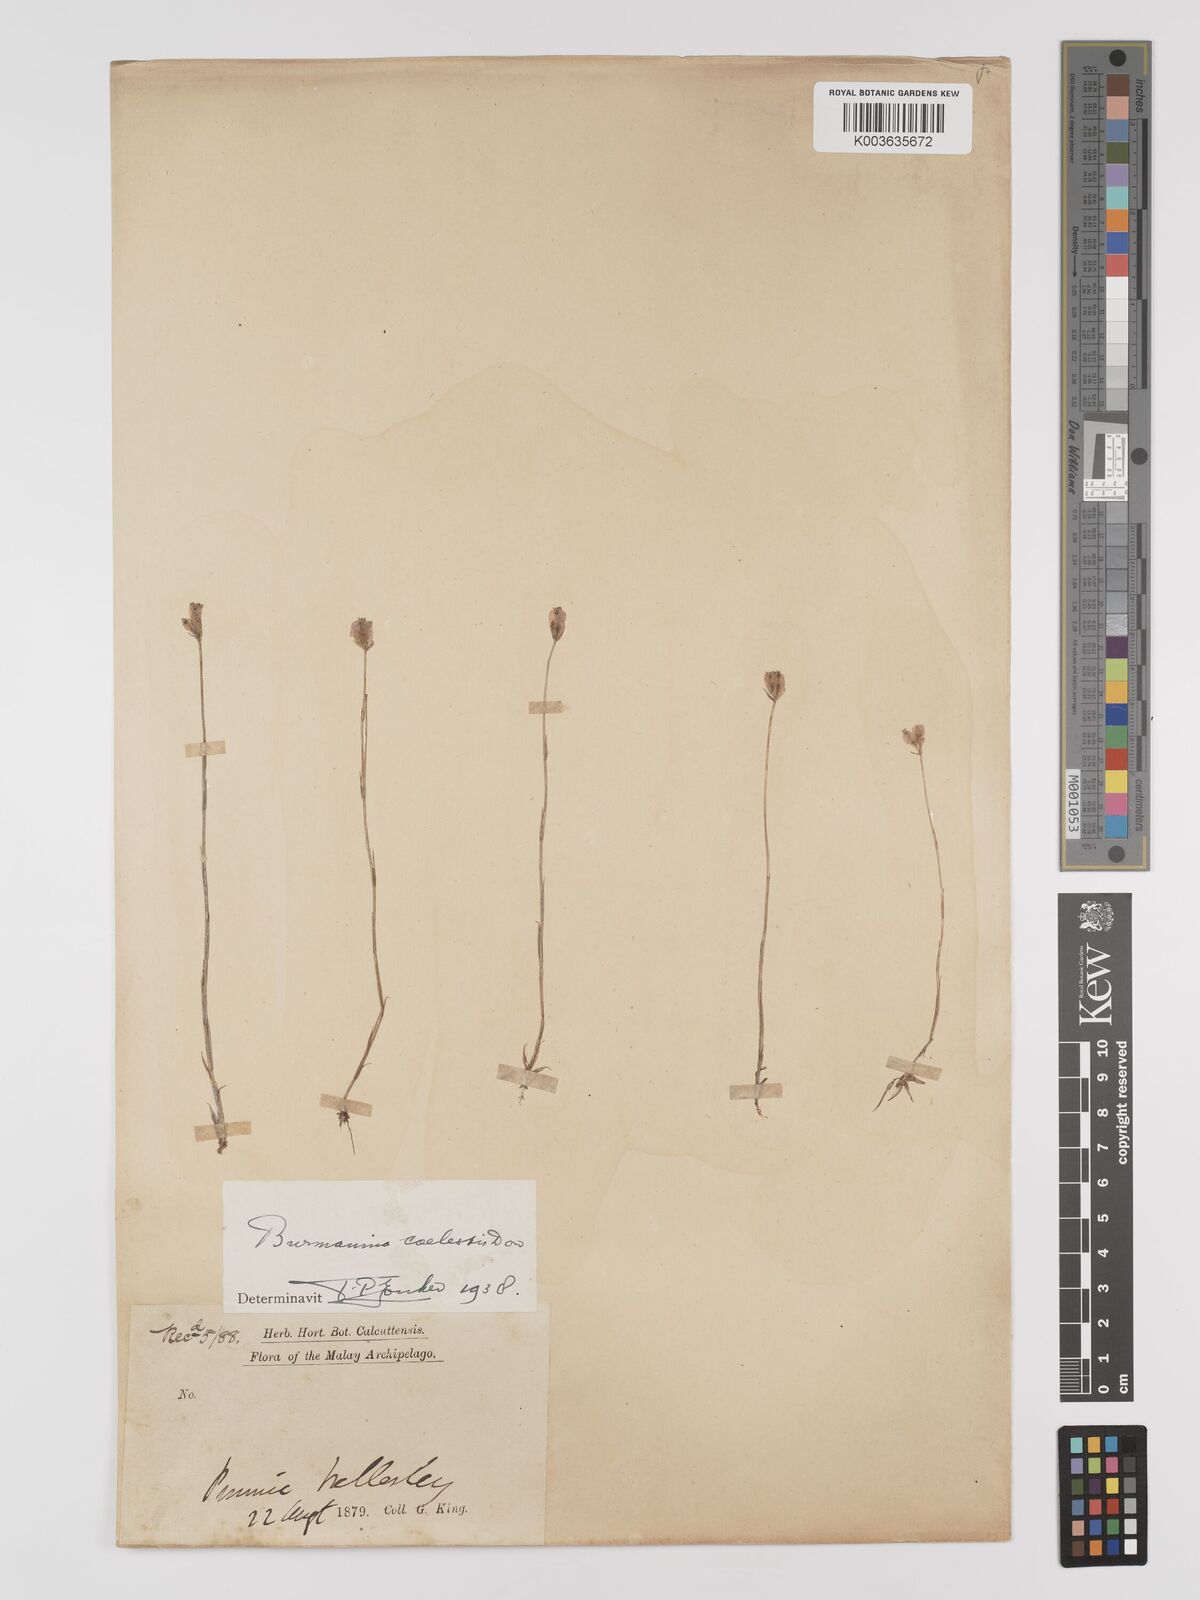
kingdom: Plantae
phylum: Tracheophyta
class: Liliopsida
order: Dioscoreales
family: Burmanniaceae
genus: Burmannia
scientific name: Burmannia coelestis
